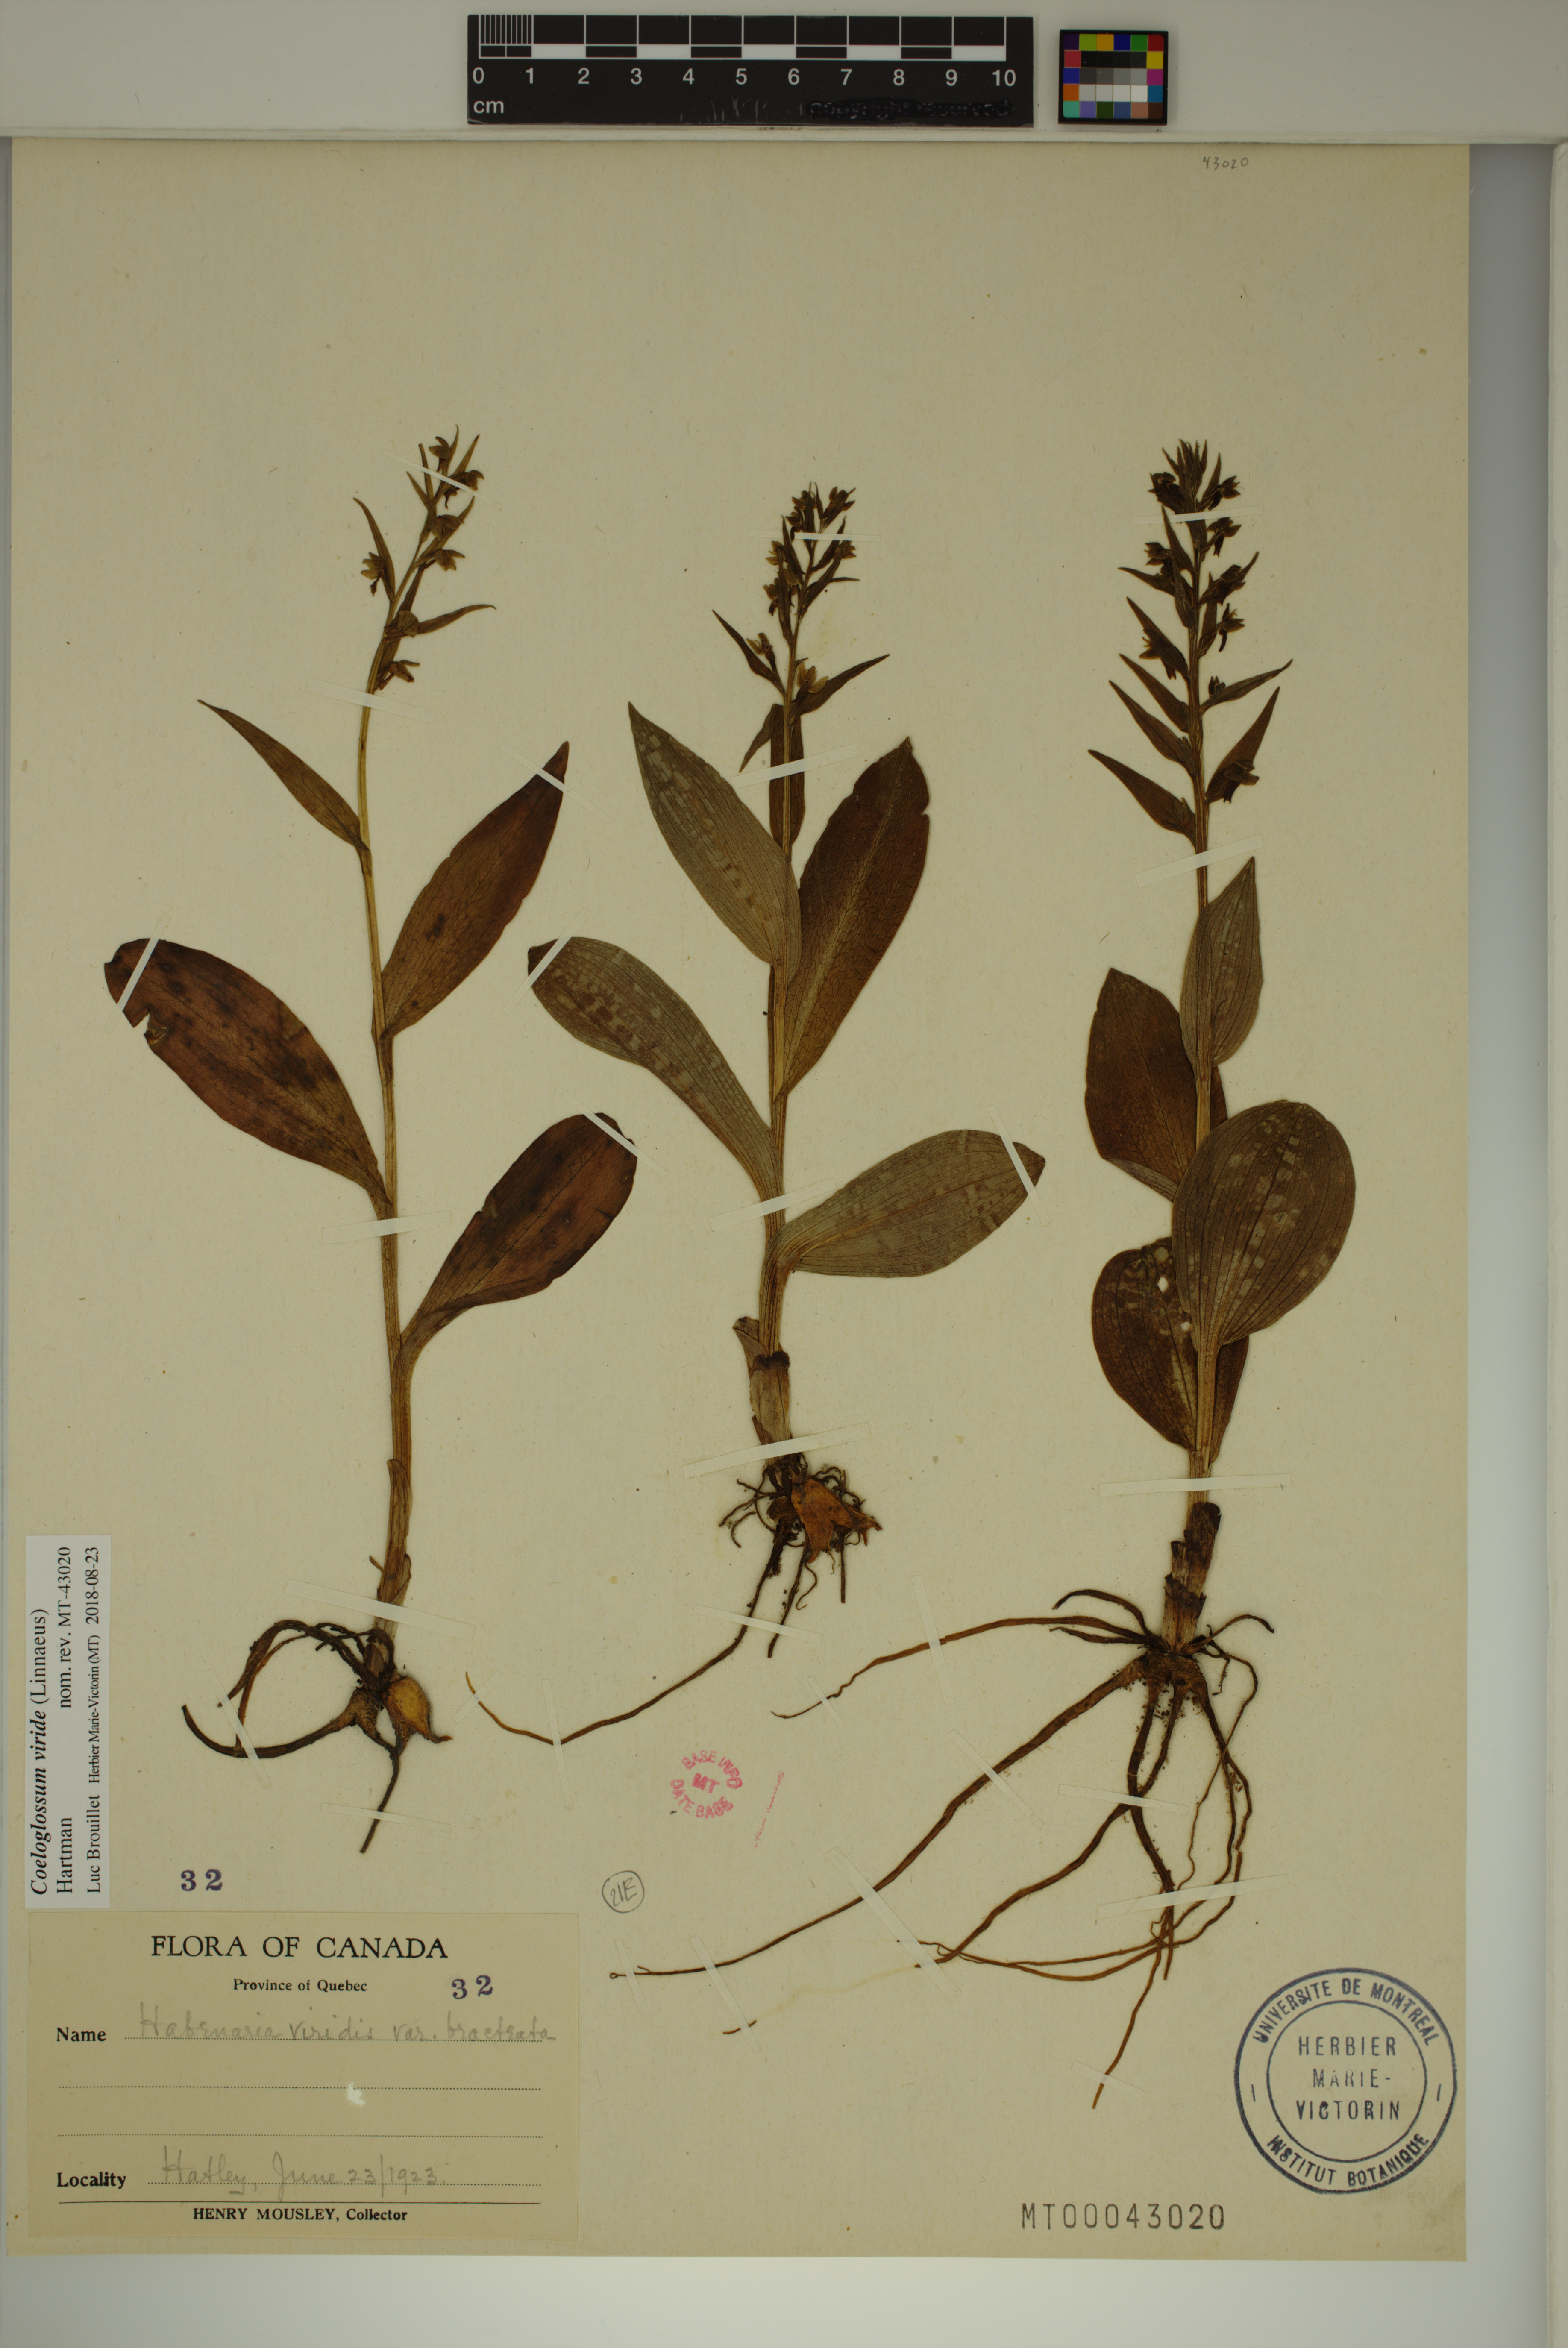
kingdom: Plantae
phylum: Tracheophyta
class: Liliopsida
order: Asparagales
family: Orchidaceae
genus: Dactylorhiza
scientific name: Dactylorhiza viridis
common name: Longbract frog orchid
